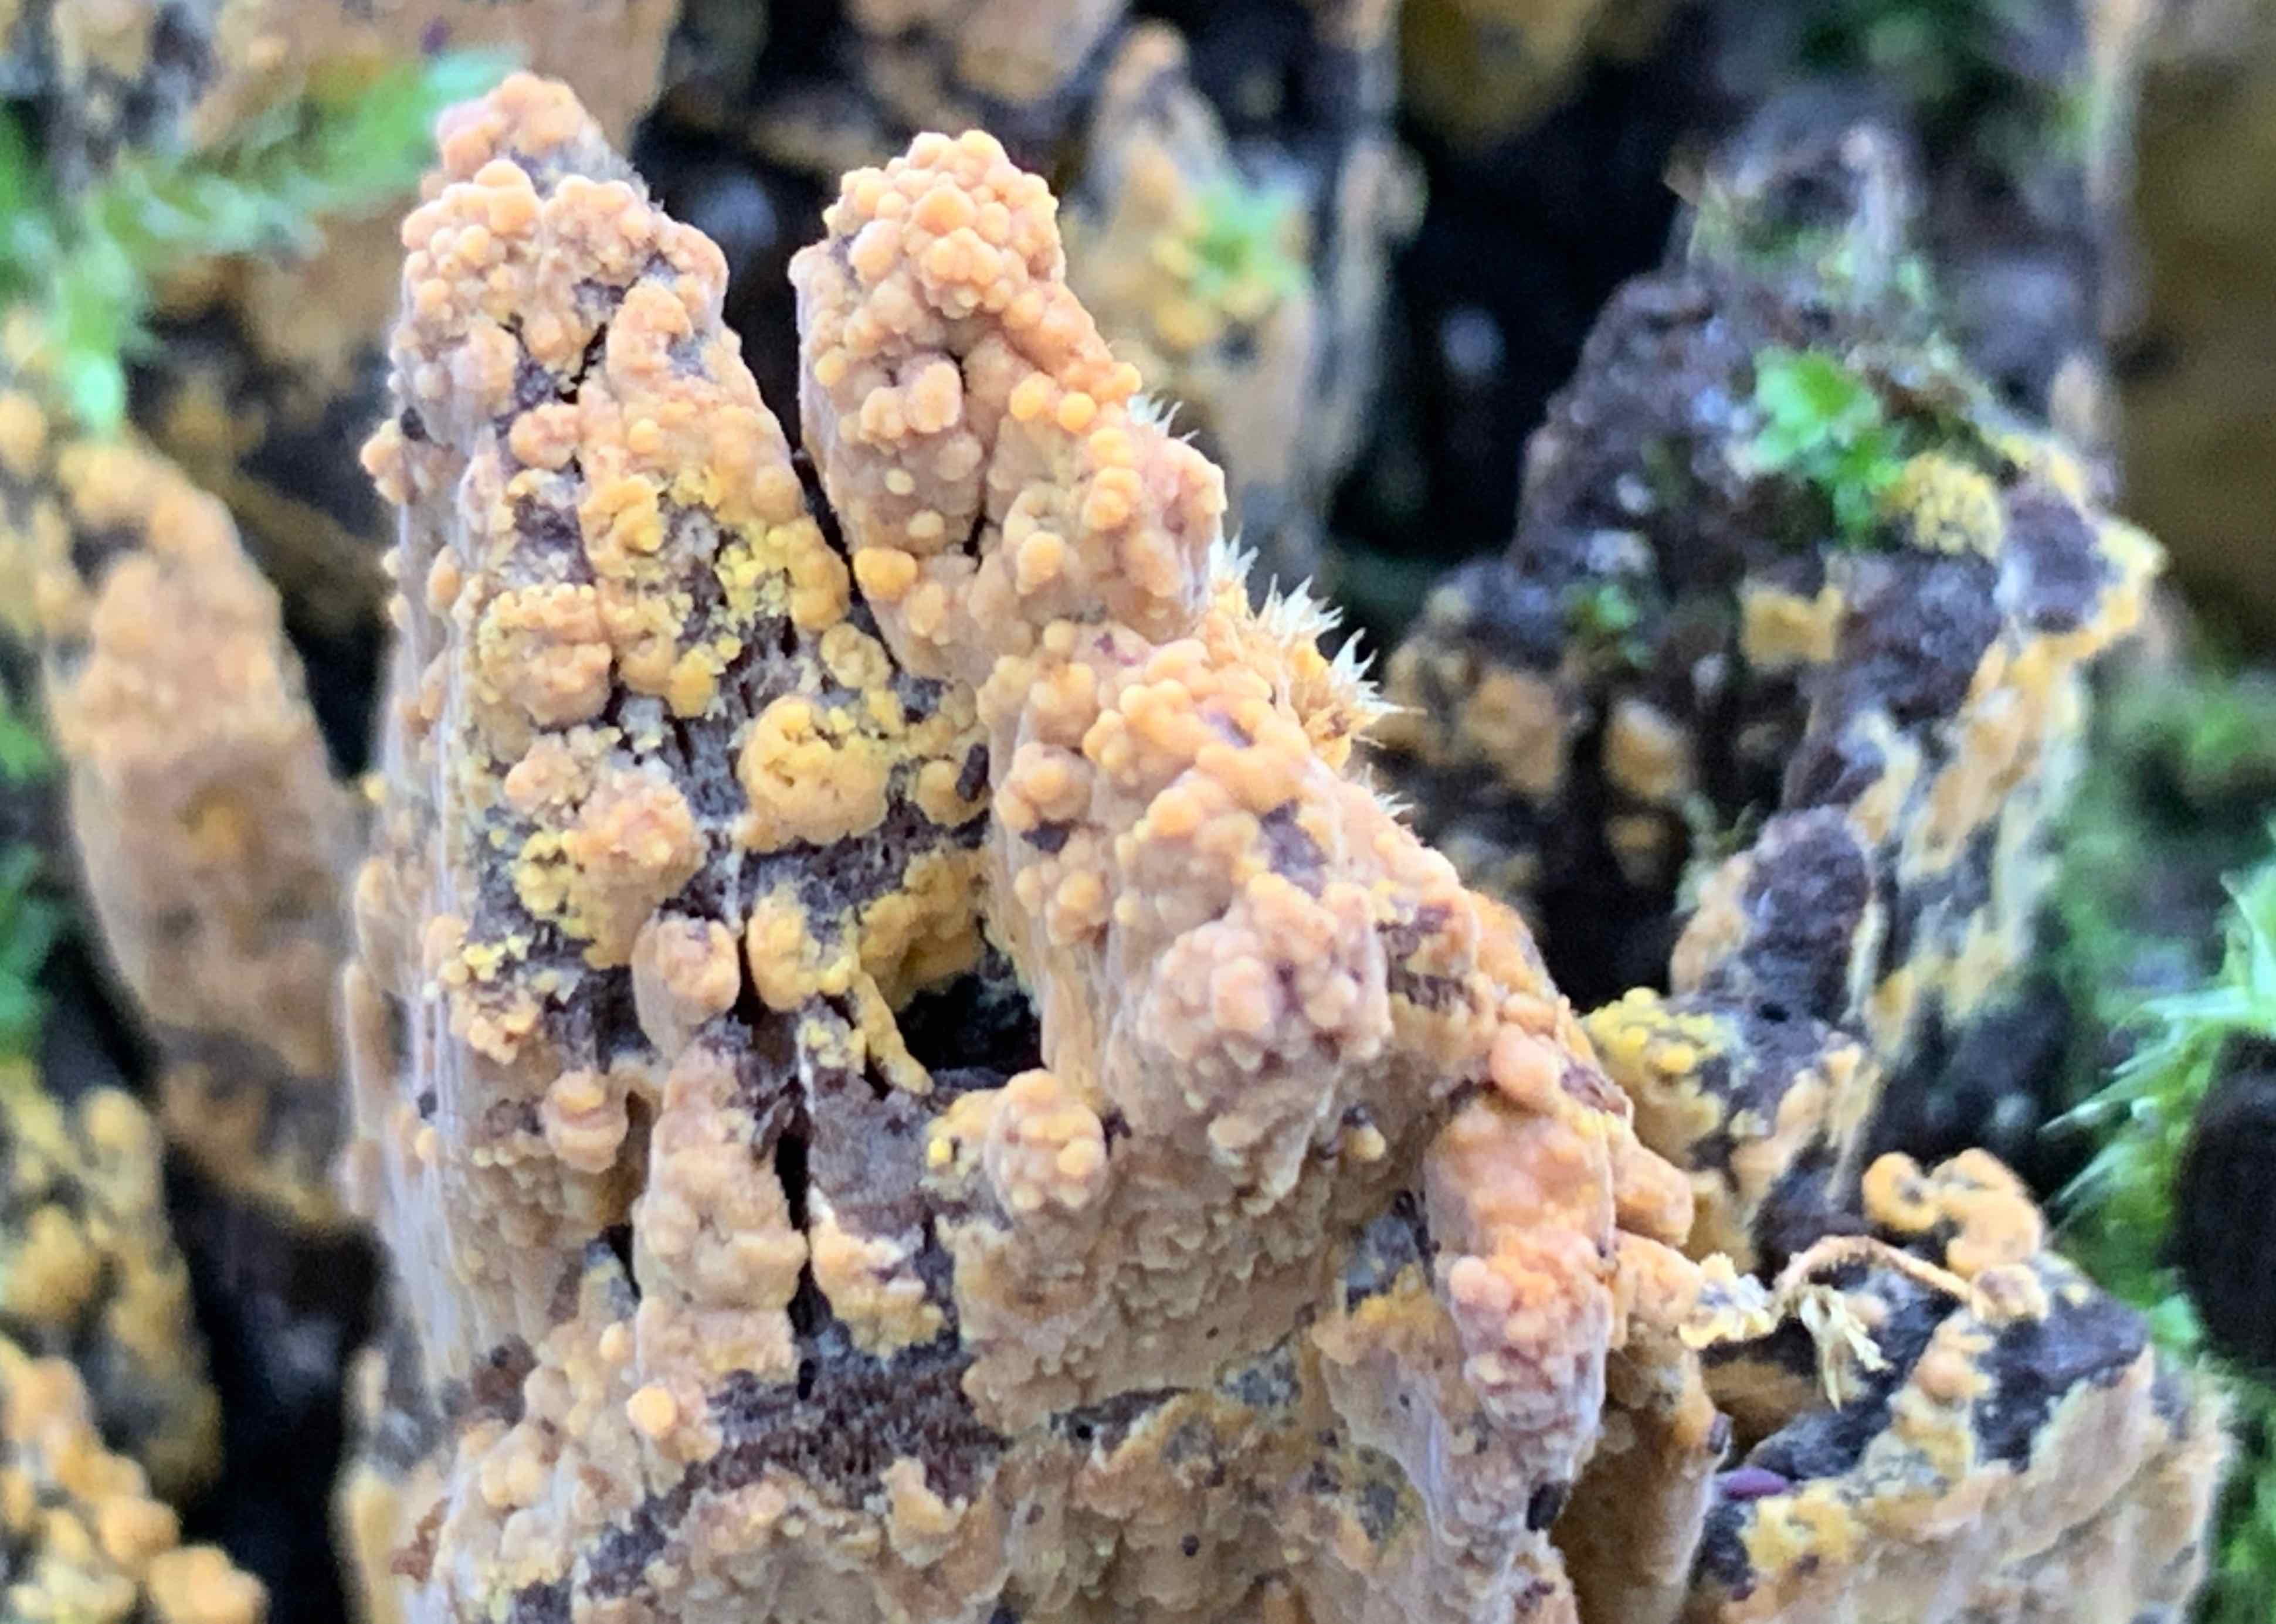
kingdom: Fungi
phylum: Basidiomycota
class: Agaricomycetes
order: Corticiales
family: Corticiaceae
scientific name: Corticiaceae
